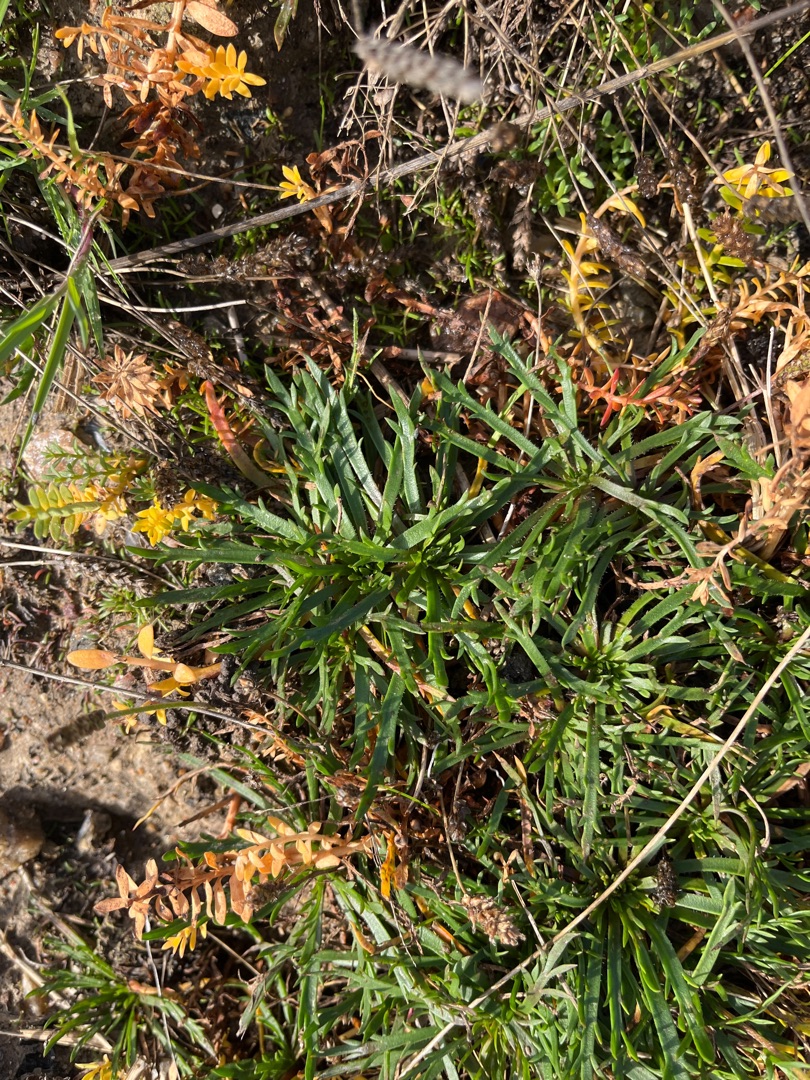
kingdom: Plantae
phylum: Tracheophyta
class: Magnoliopsida
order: Lamiales
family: Plantaginaceae
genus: Plantago
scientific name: Plantago coronopus
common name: Fliget vejbred
